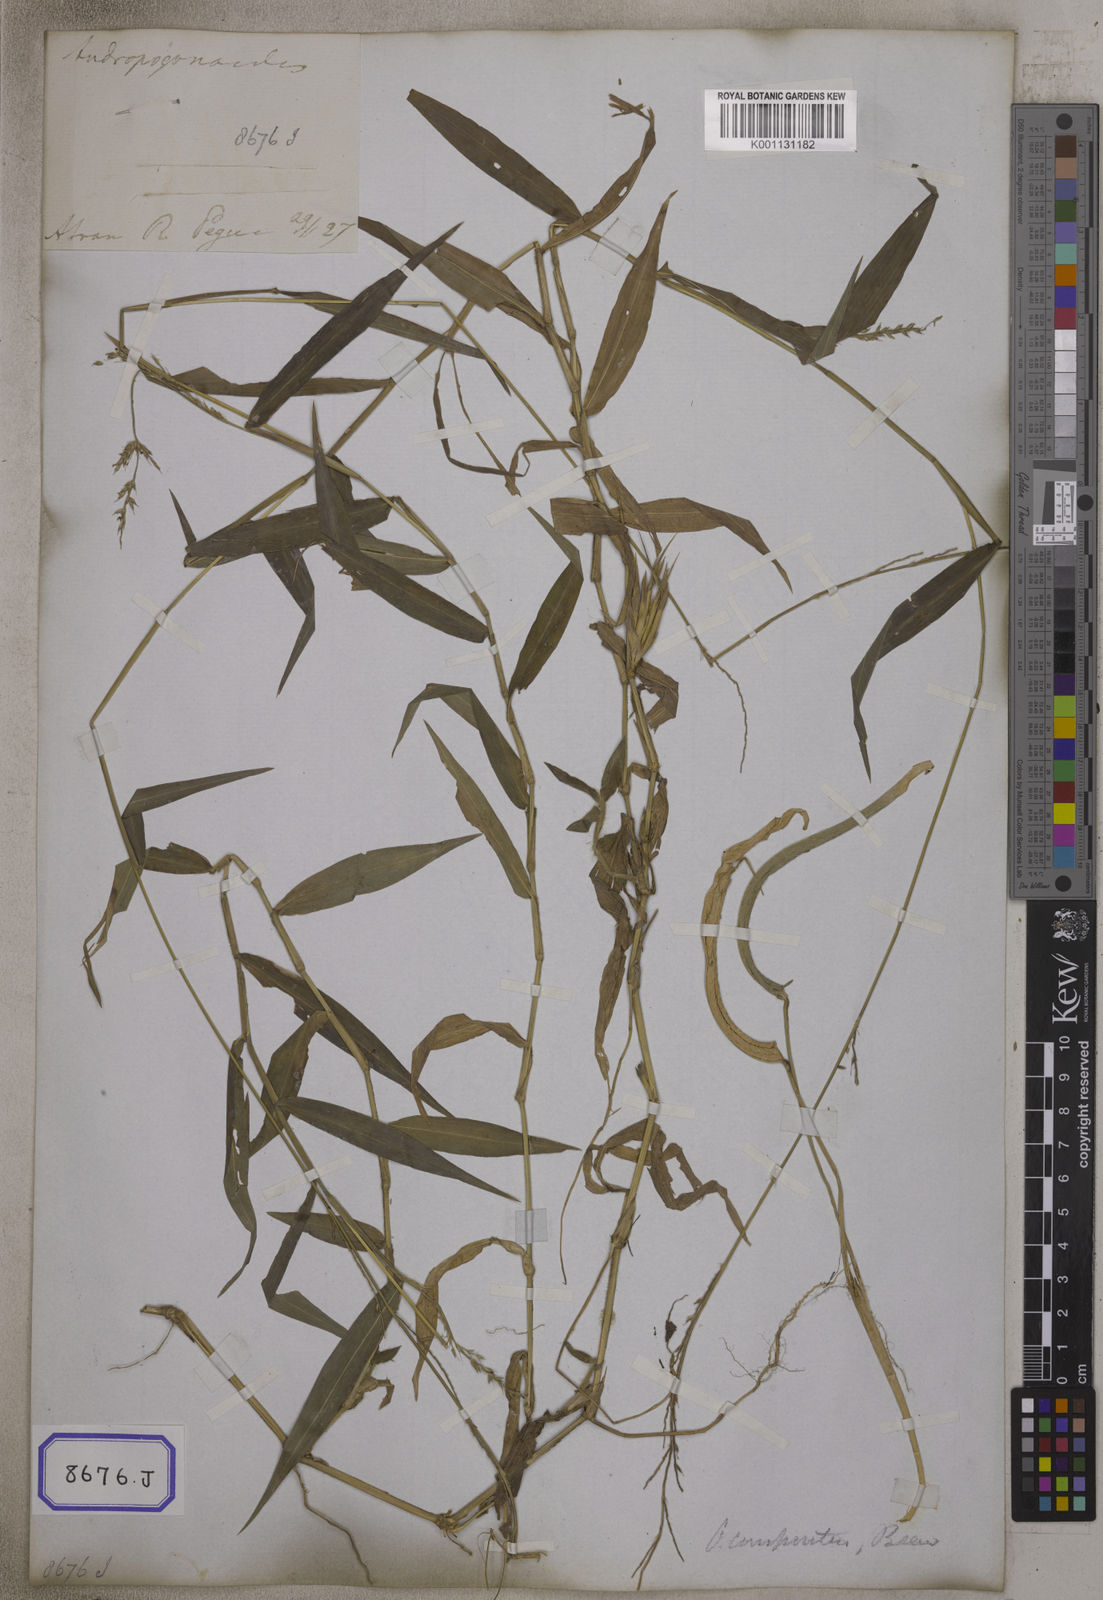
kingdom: Plantae
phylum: Tracheophyta
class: Liliopsida
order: Poales
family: Poaceae
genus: Oplismenus
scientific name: Oplismenus compositus
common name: Running mountain grass
